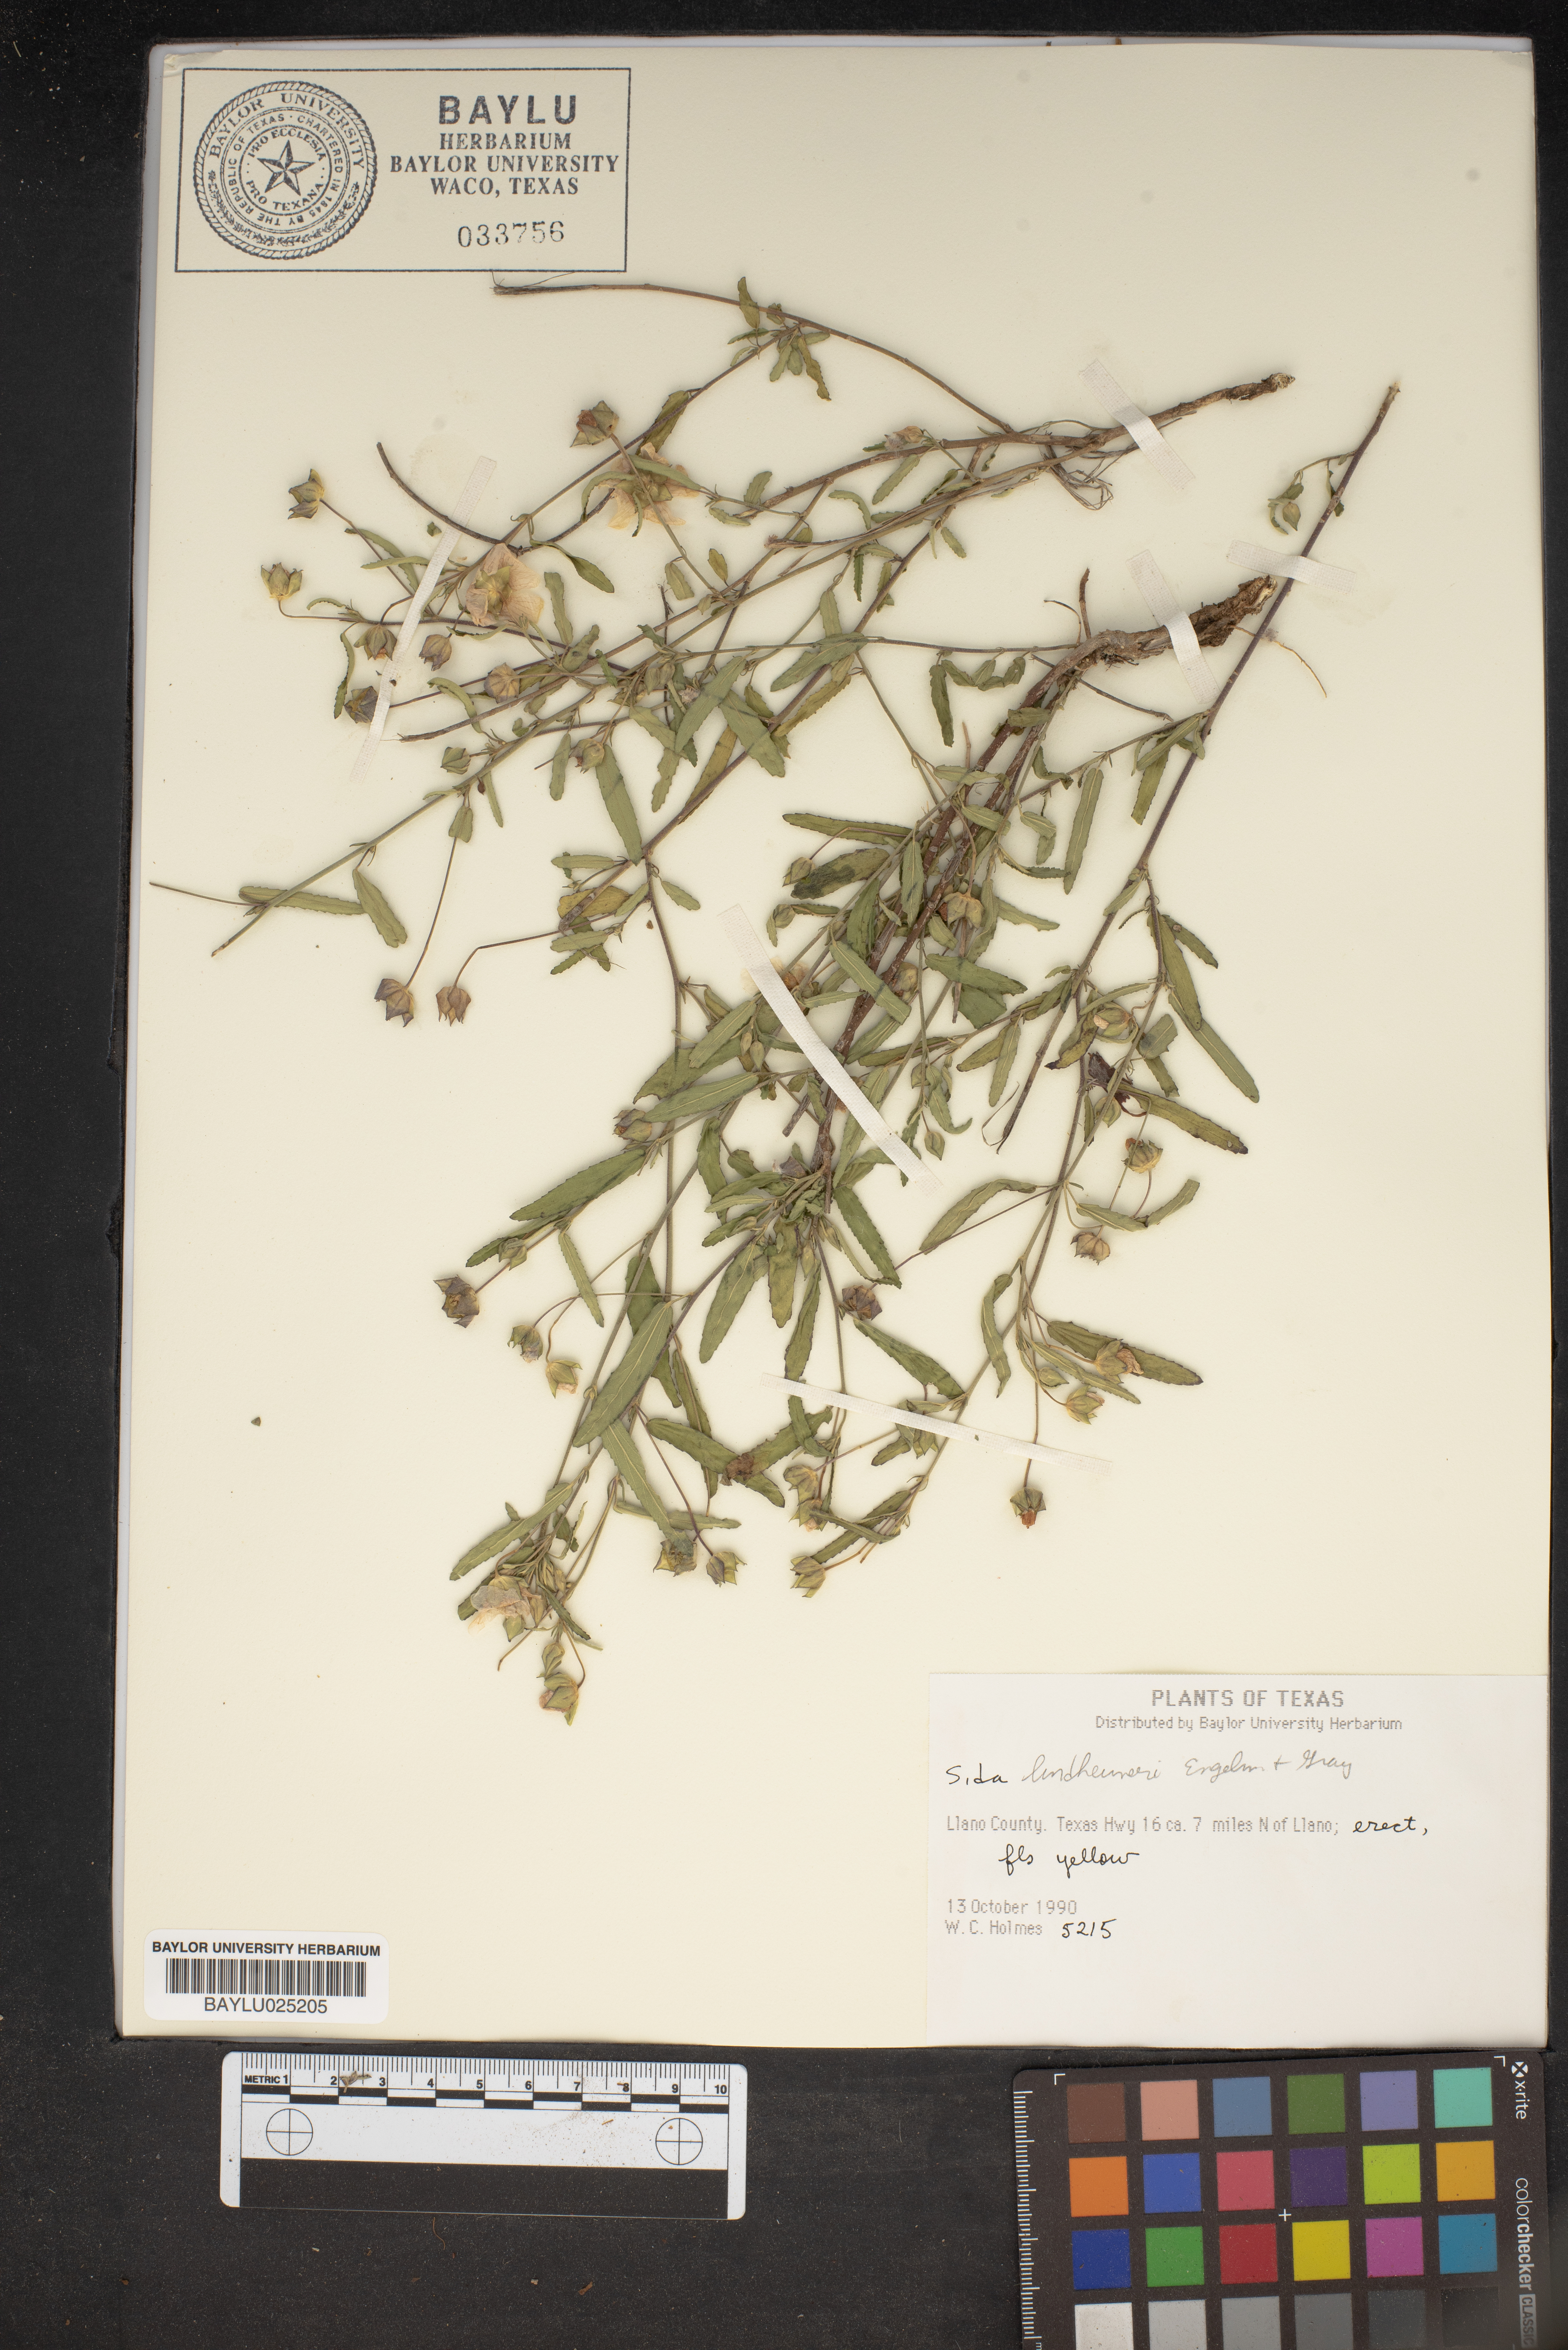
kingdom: Plantae
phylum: Tracheophyta
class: Magnoliopsida
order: Malvales
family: Malvaceae
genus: Sida
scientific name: Sida lindheimeri
